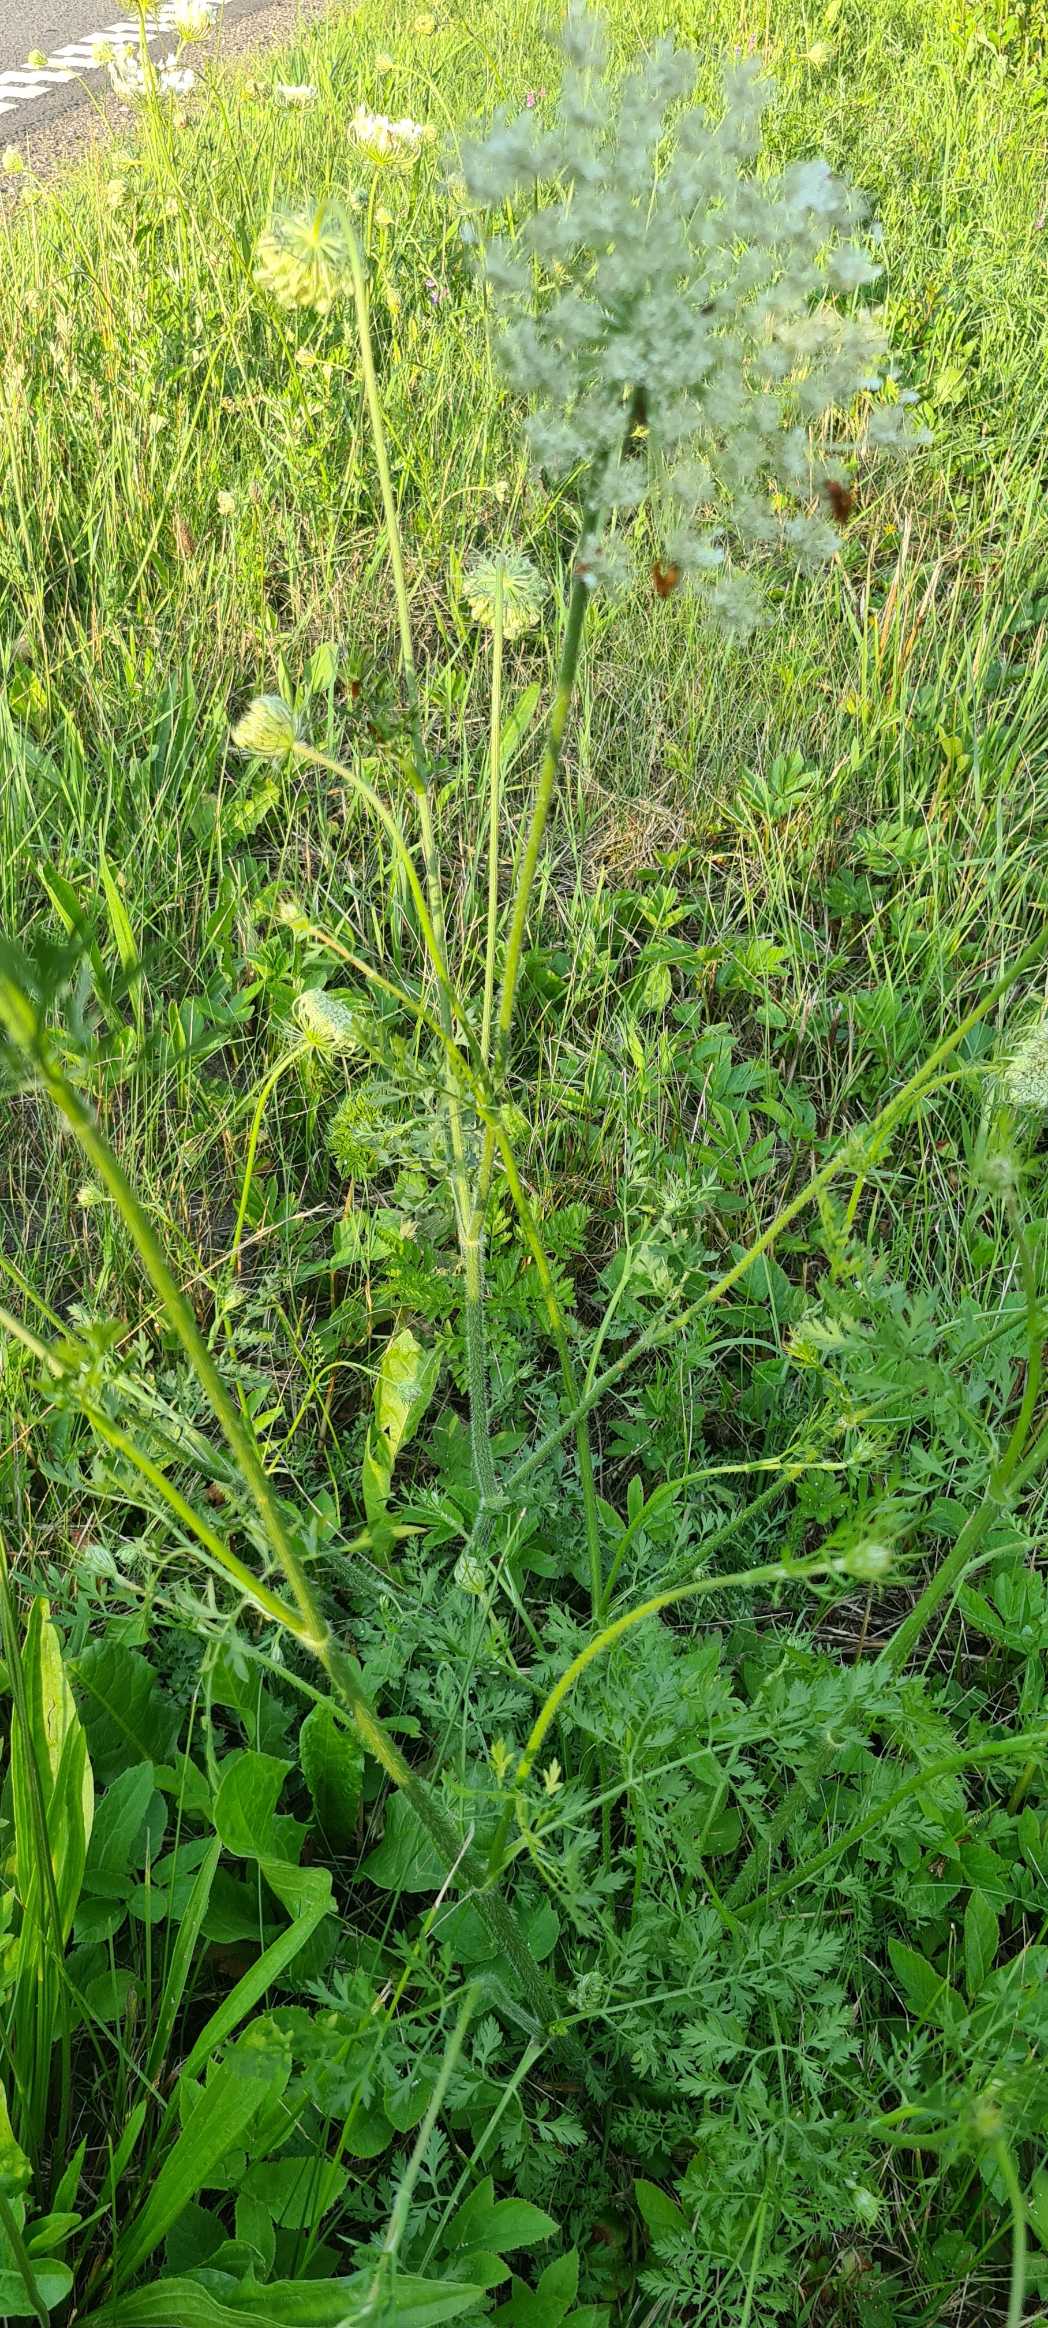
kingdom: Plantae
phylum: Tracheophyta
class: Magnoliopsida
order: Apiales
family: Apiaceae
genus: Daucus
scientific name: Daucus carota
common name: Gulerod
